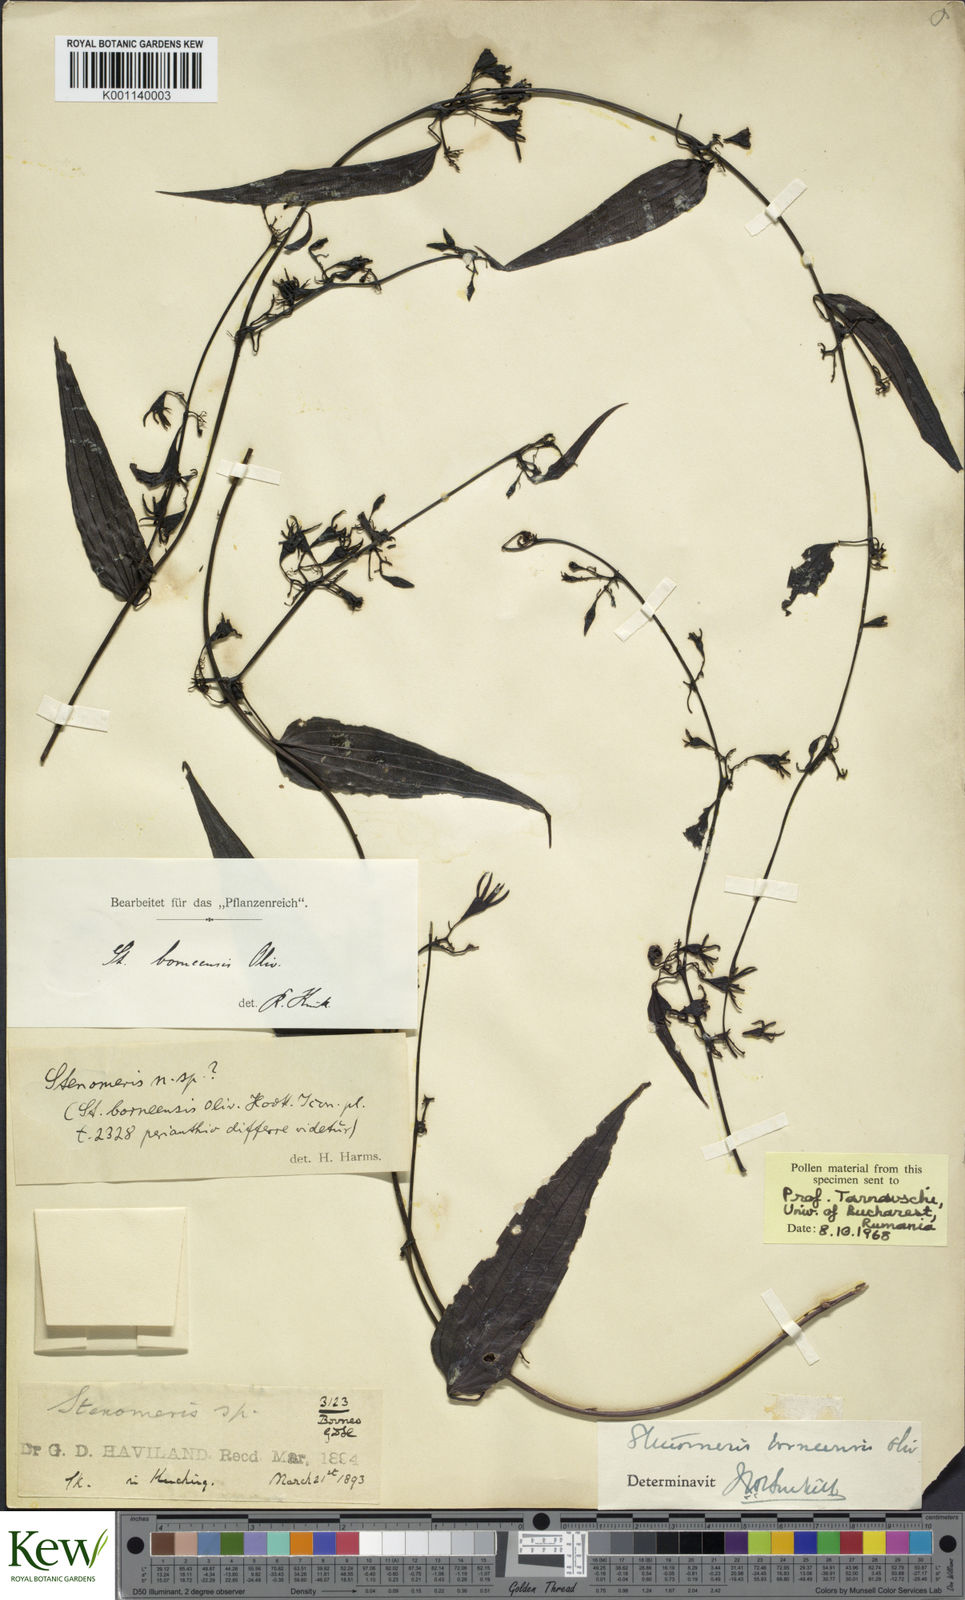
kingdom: Plantae
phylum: Tracheophyta
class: Liliopsida
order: Dioscoreales
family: Dioscoreaceae
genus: Stenomeris
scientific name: Stenomeris borneensis
